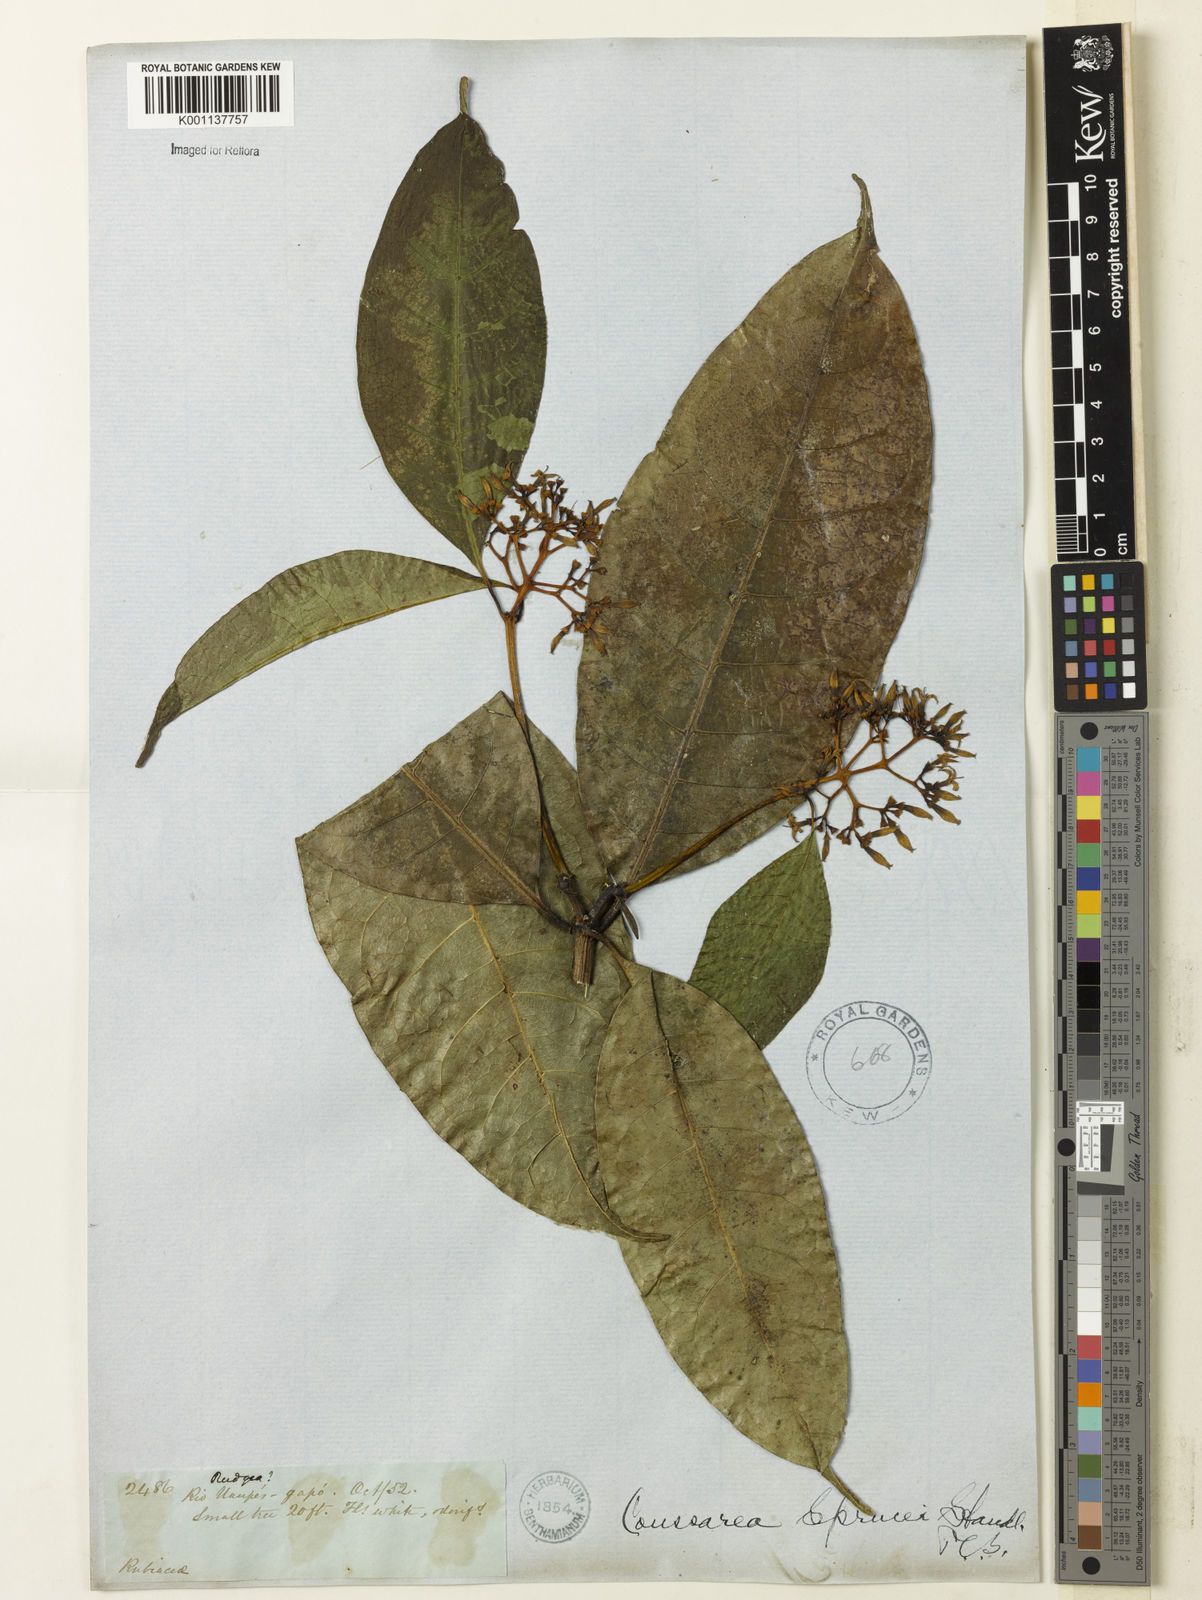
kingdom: Plantae
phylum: Tracheophyta
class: Magnoliopsida
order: Gentianales
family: Rubiaceae
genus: Coussarea
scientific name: Coussarea violacea
